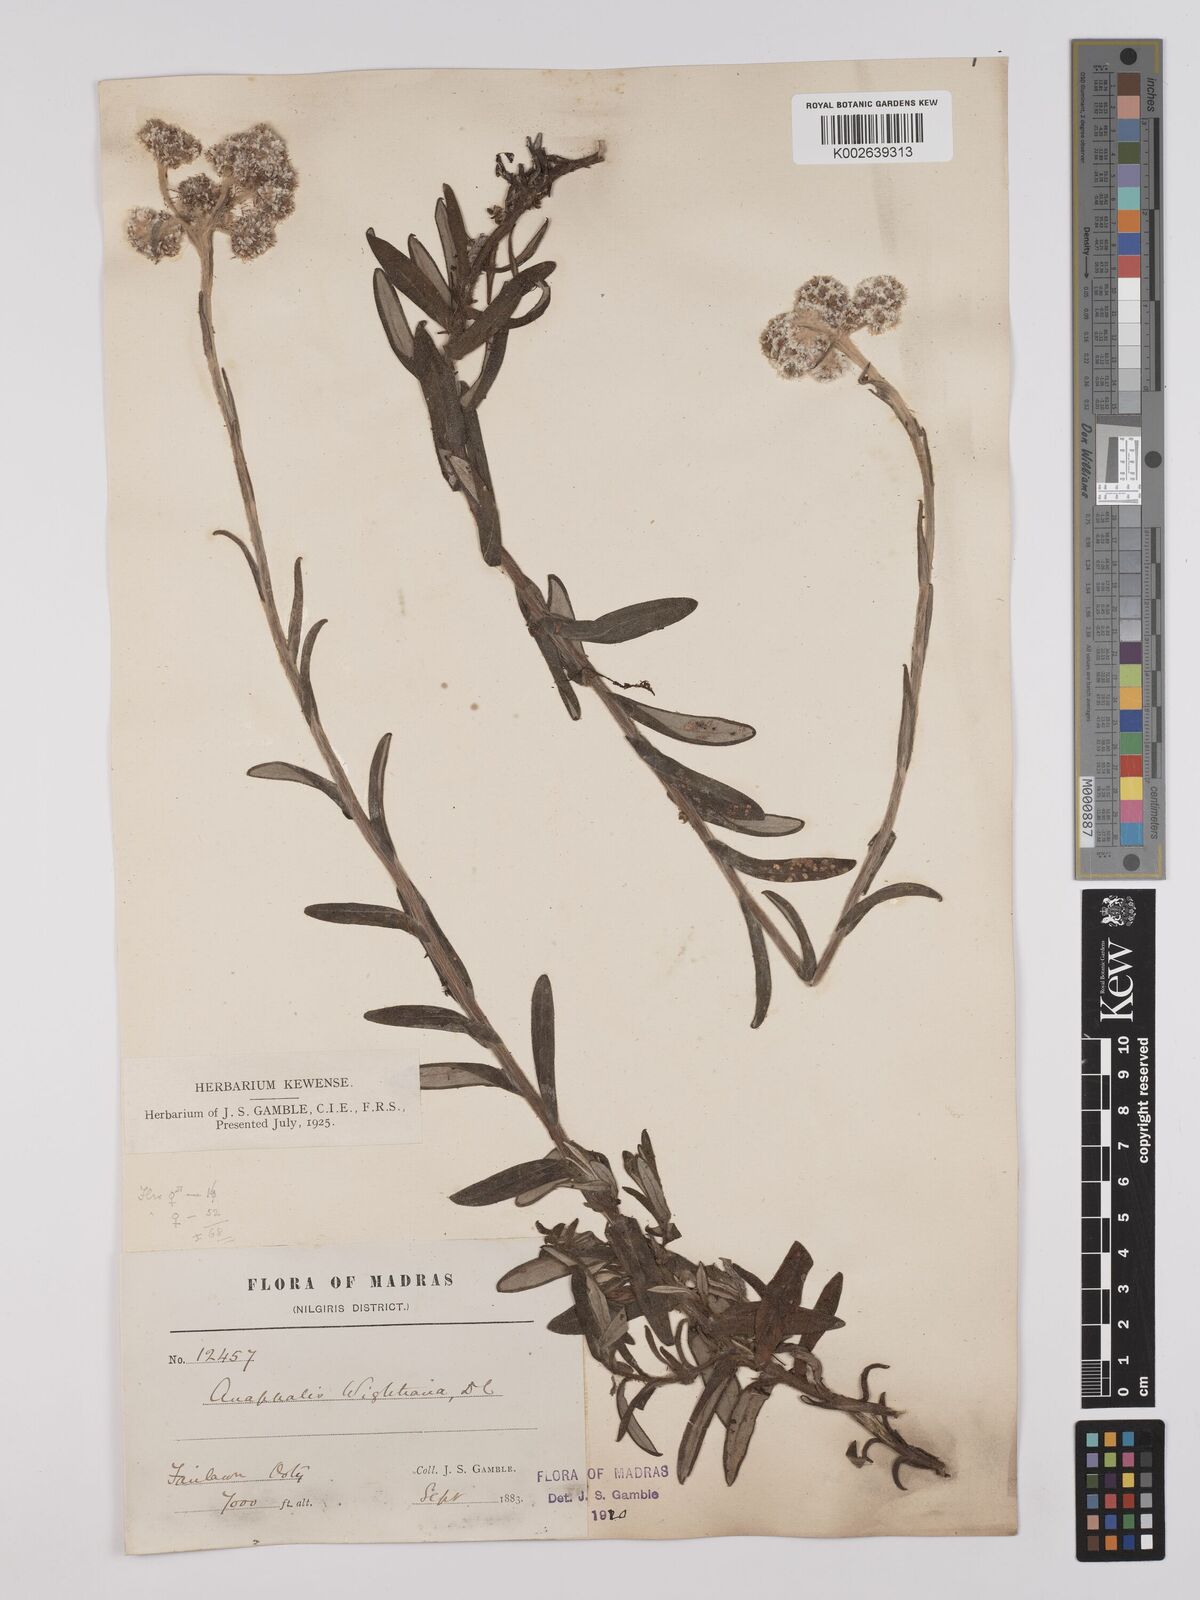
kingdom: Plantae
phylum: Tracheophyta
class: Magnoliopsida
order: Asterales
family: Asteraceae
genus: Anaphalis
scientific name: Anaphalis wightiana
